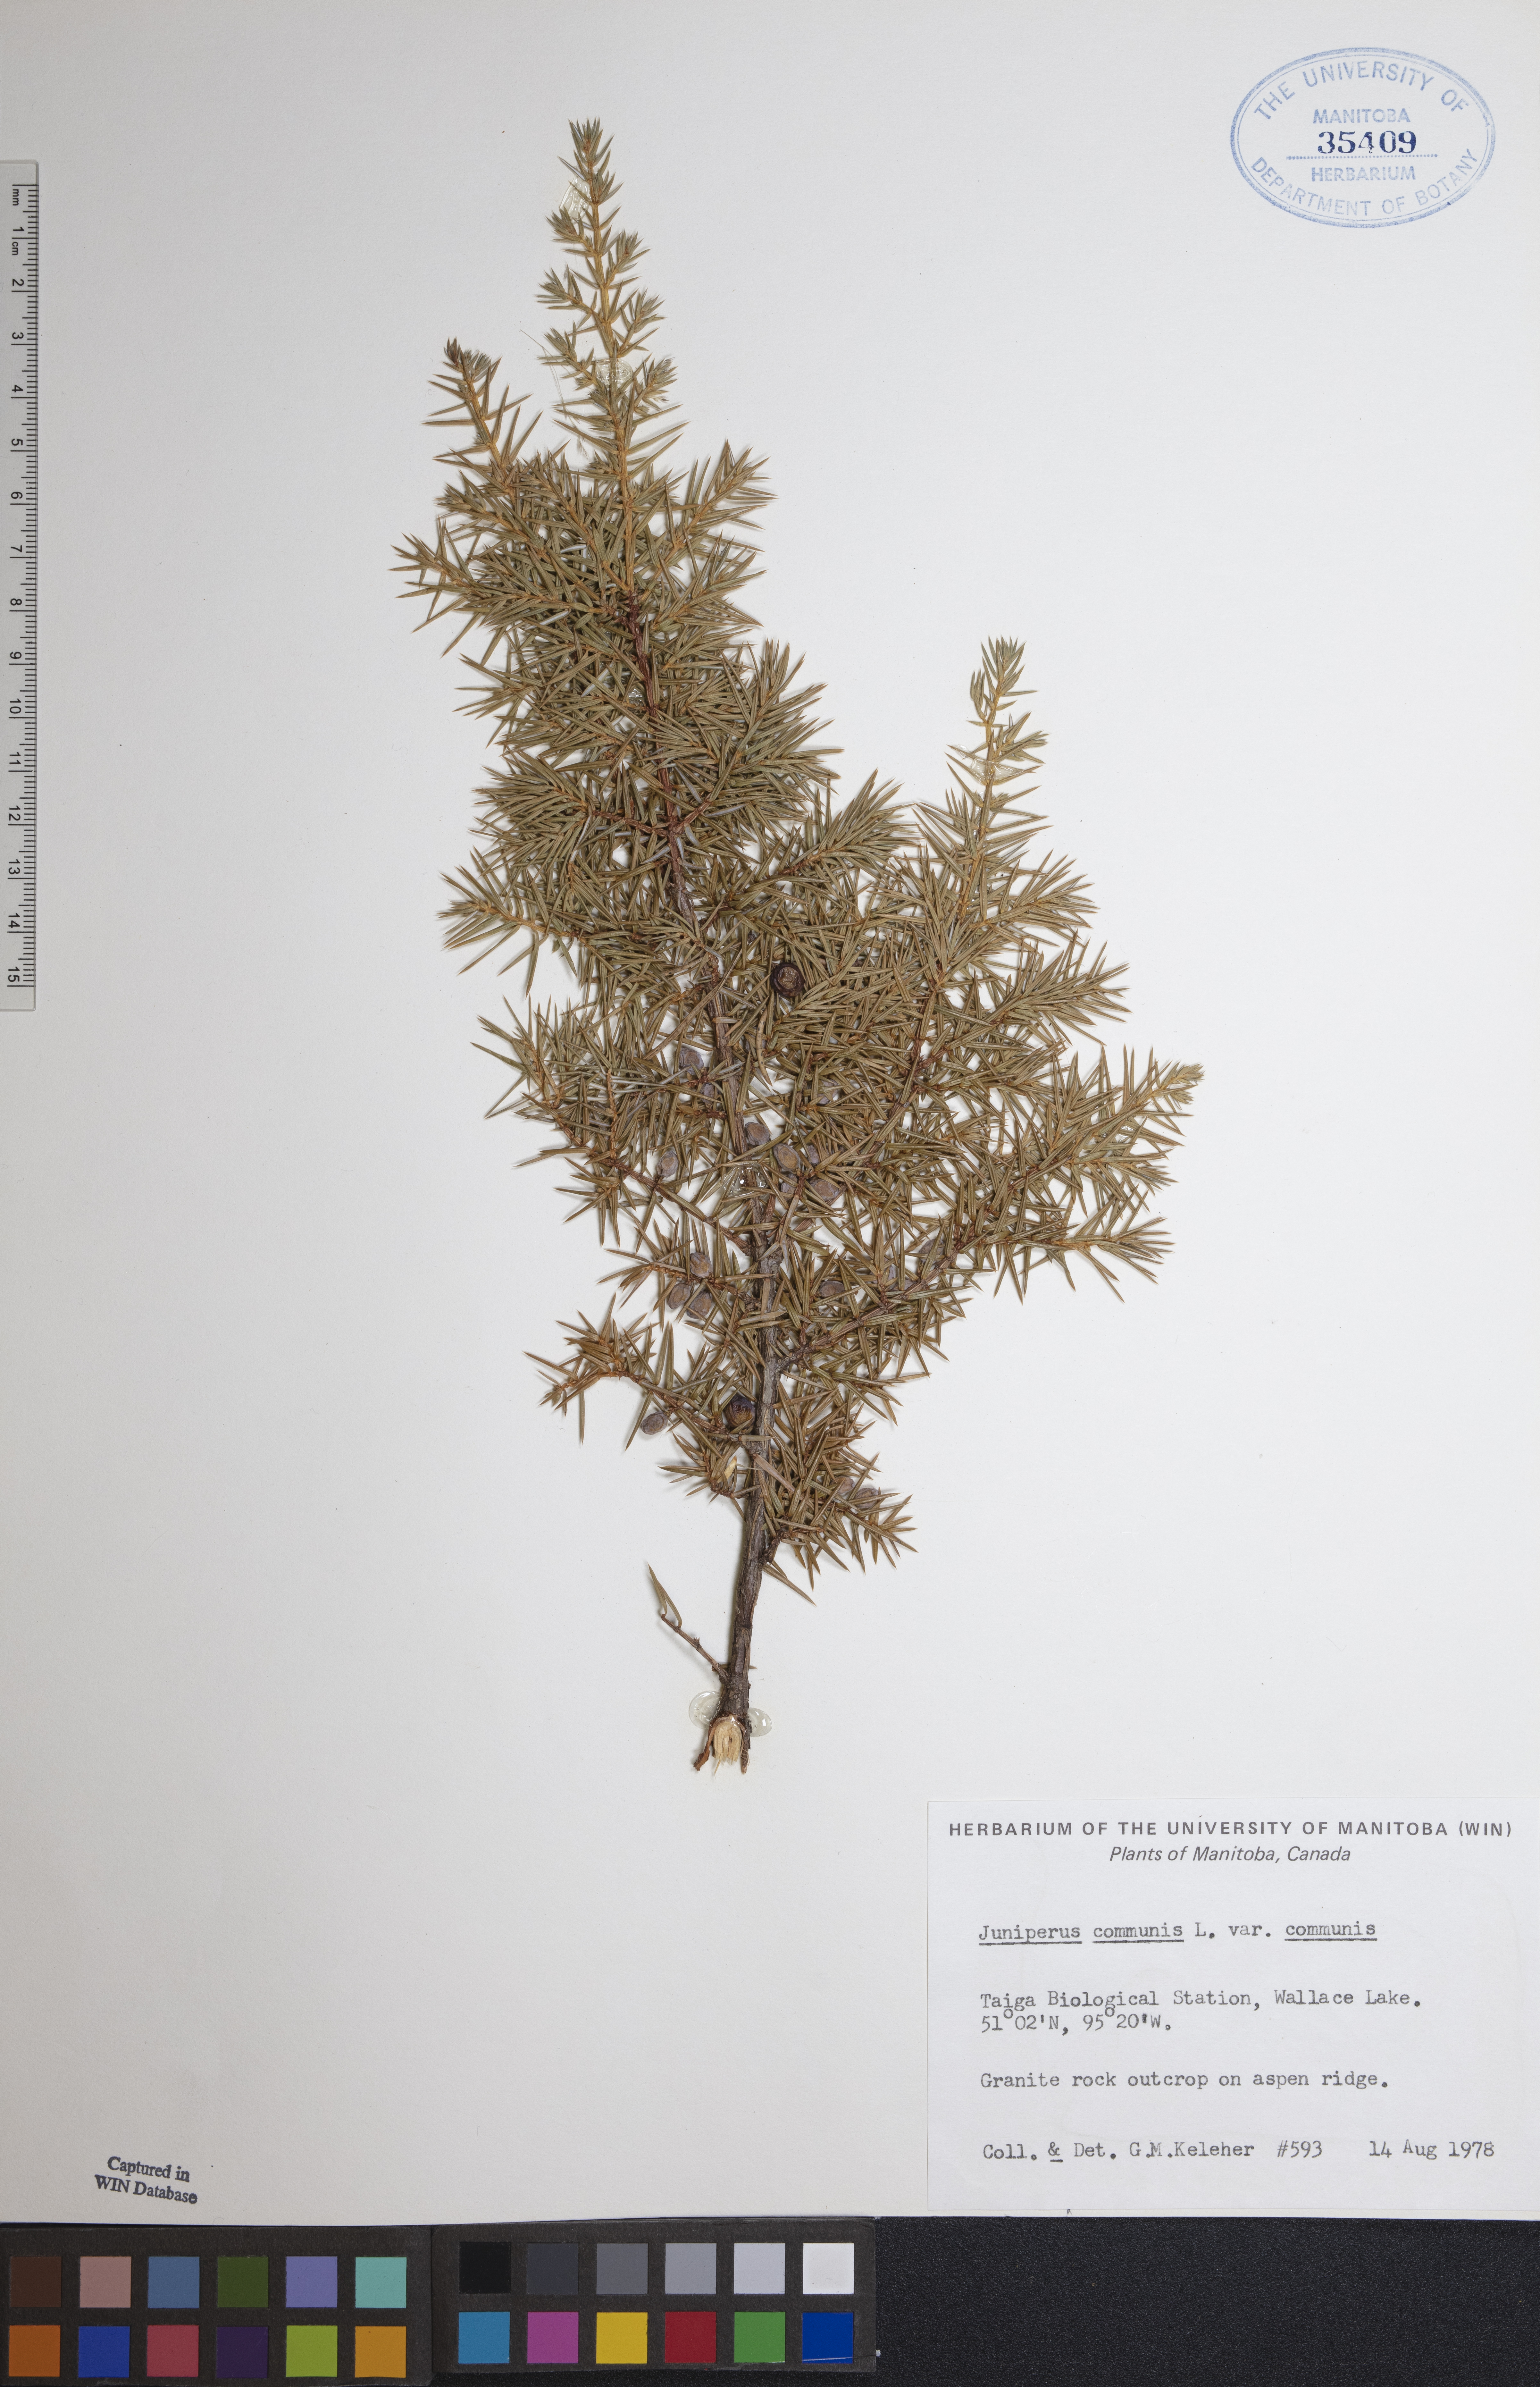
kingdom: Plantae
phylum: Tracheophyta
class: Pinopsida
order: Pinales
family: Cupressaceae
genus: Juniperus
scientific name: Juniperus communis
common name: Common juniper
